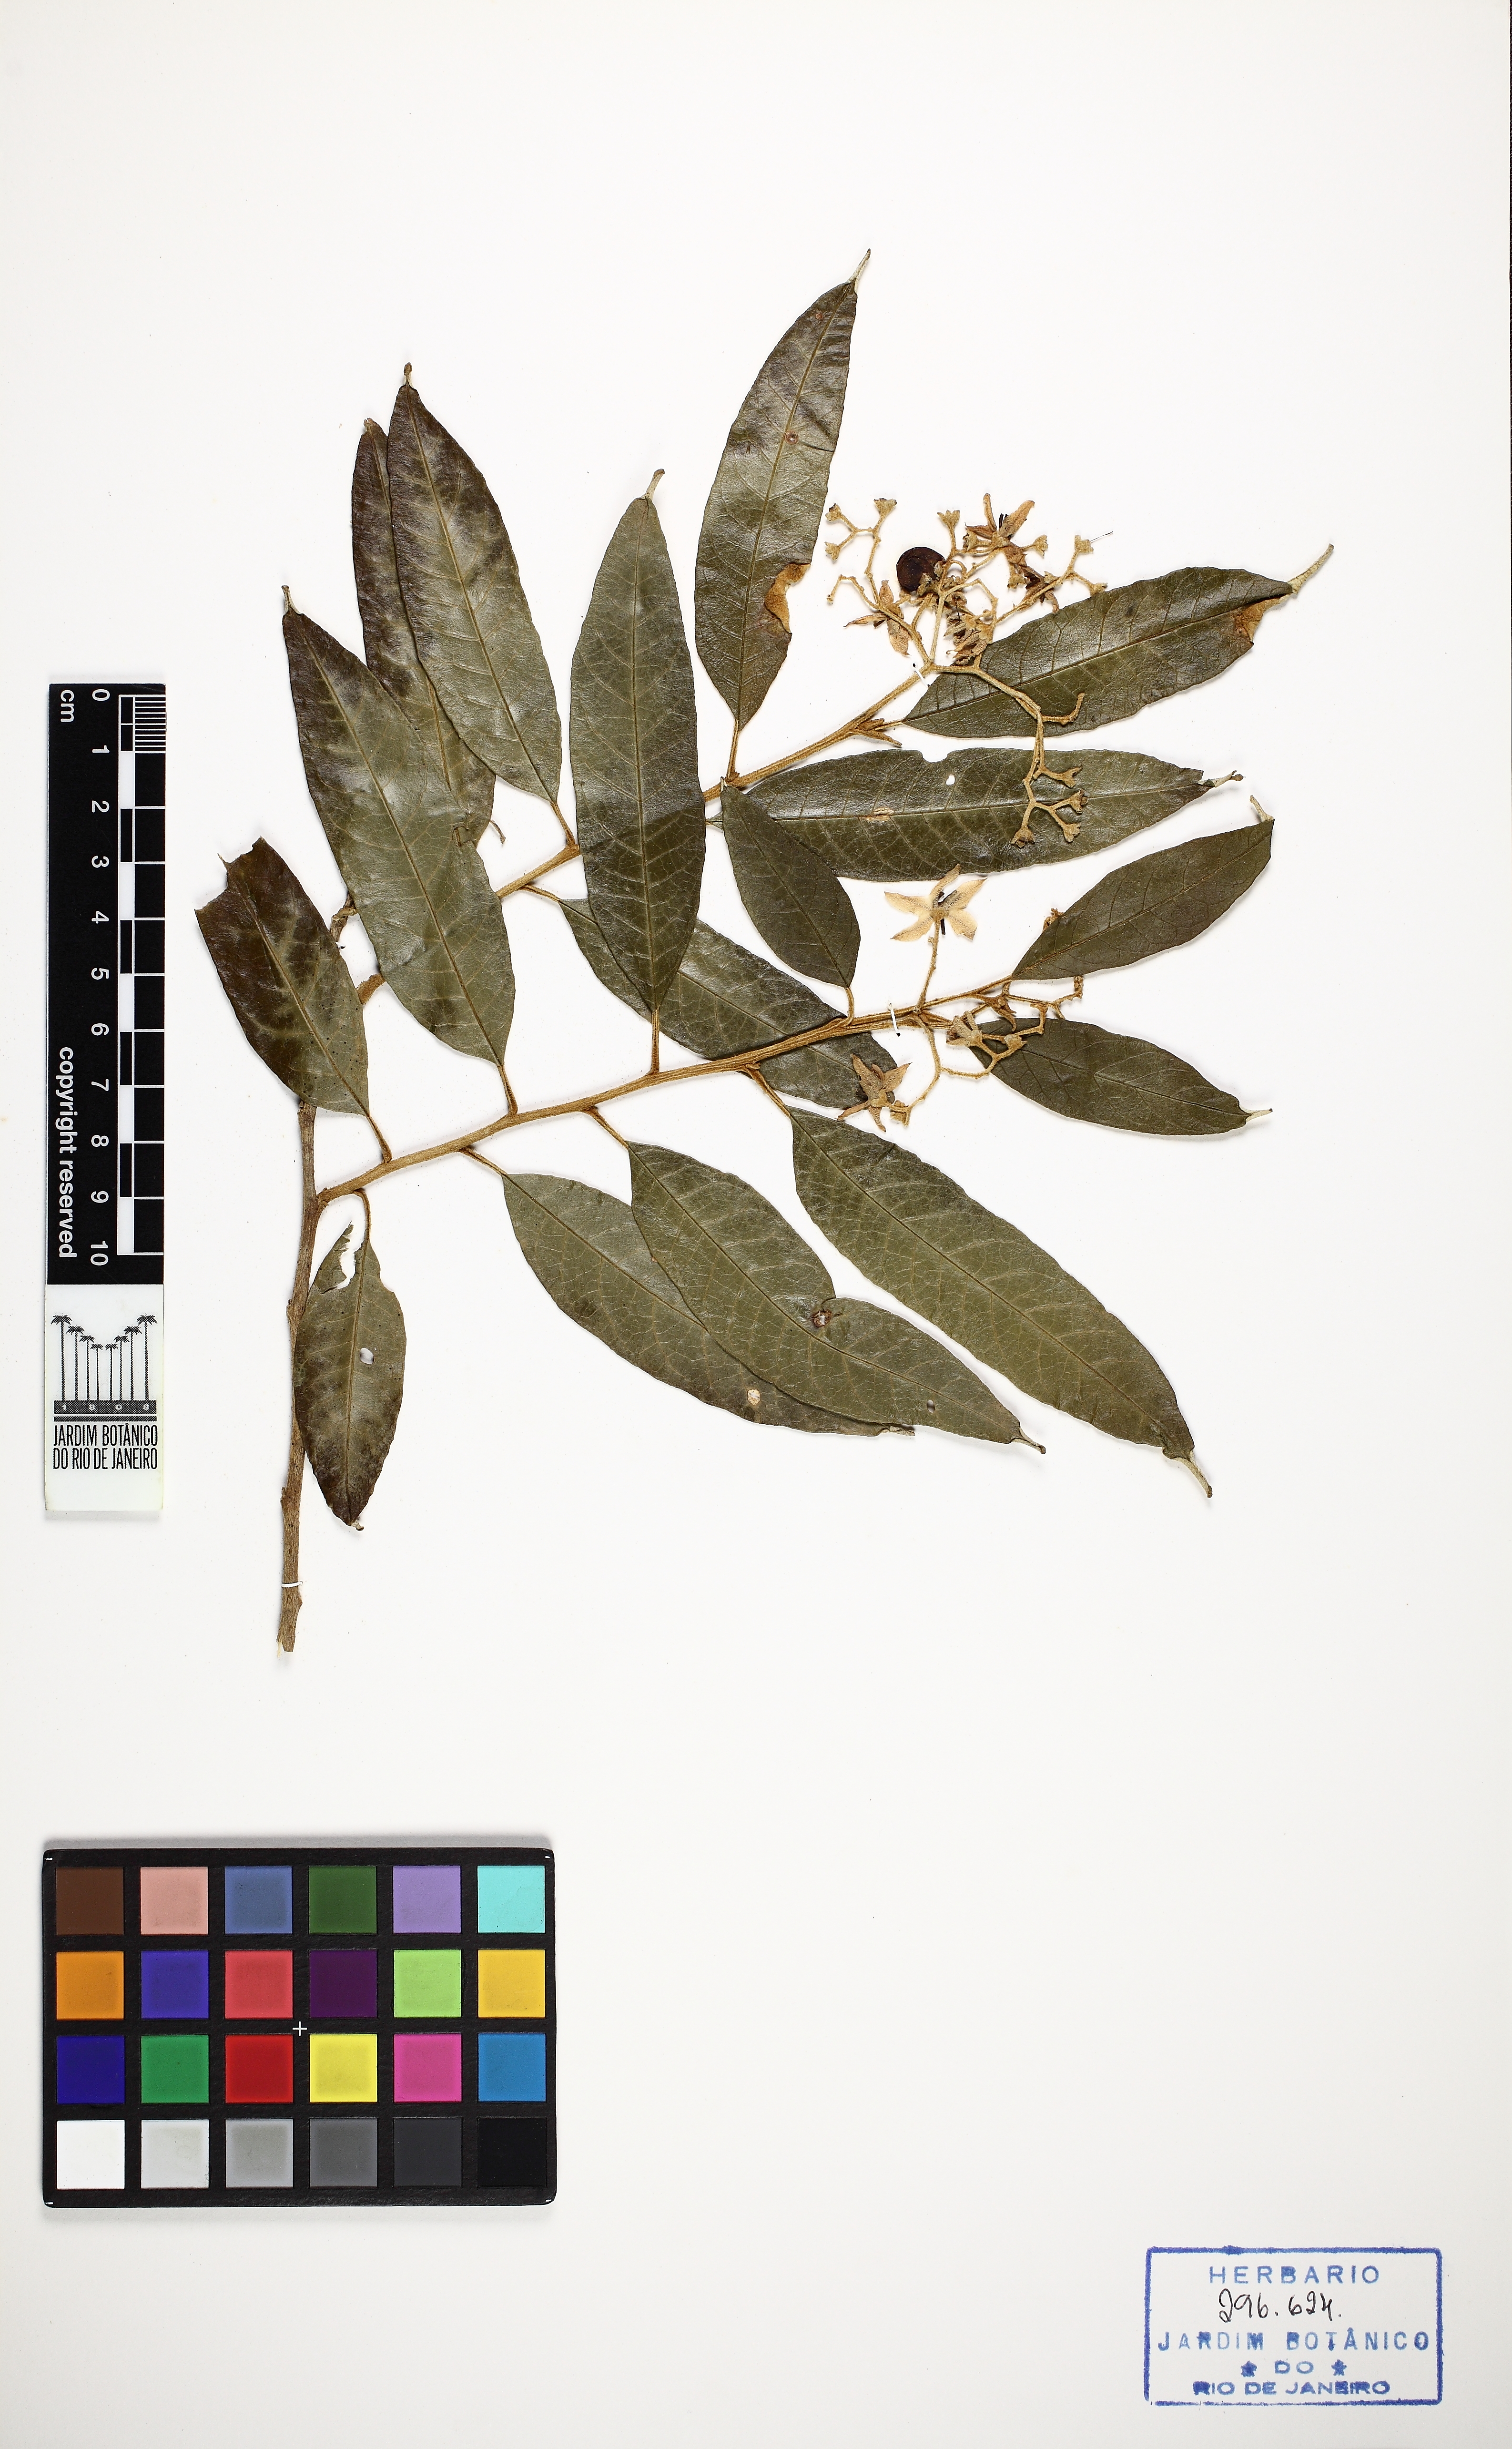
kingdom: Plantae
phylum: Tracheophyta
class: Magnoliopsida
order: Solanales
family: Solanaceae
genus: Solanum
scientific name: Solanum cinnamomeum
